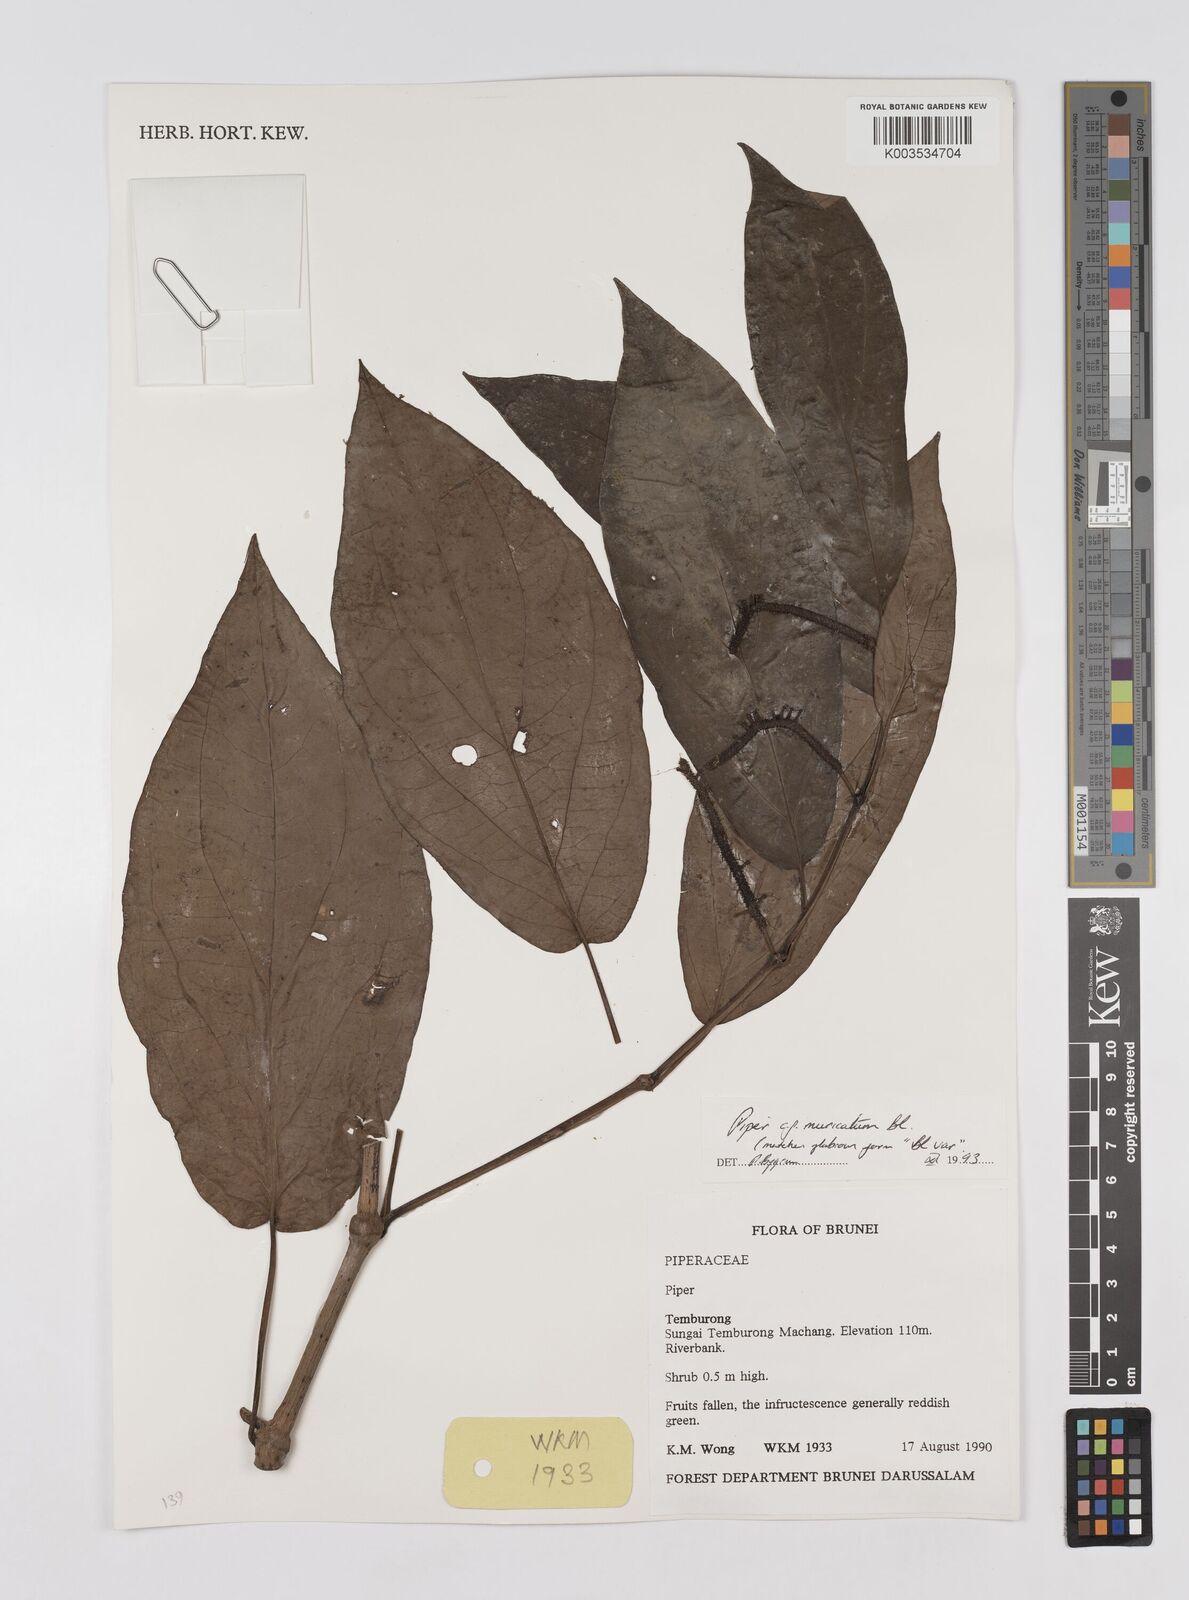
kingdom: Plantae
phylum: Tracheophyta
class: Magnoliopsida
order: Piperales
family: Piperaceae
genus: Piper
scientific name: Piper muricatum
